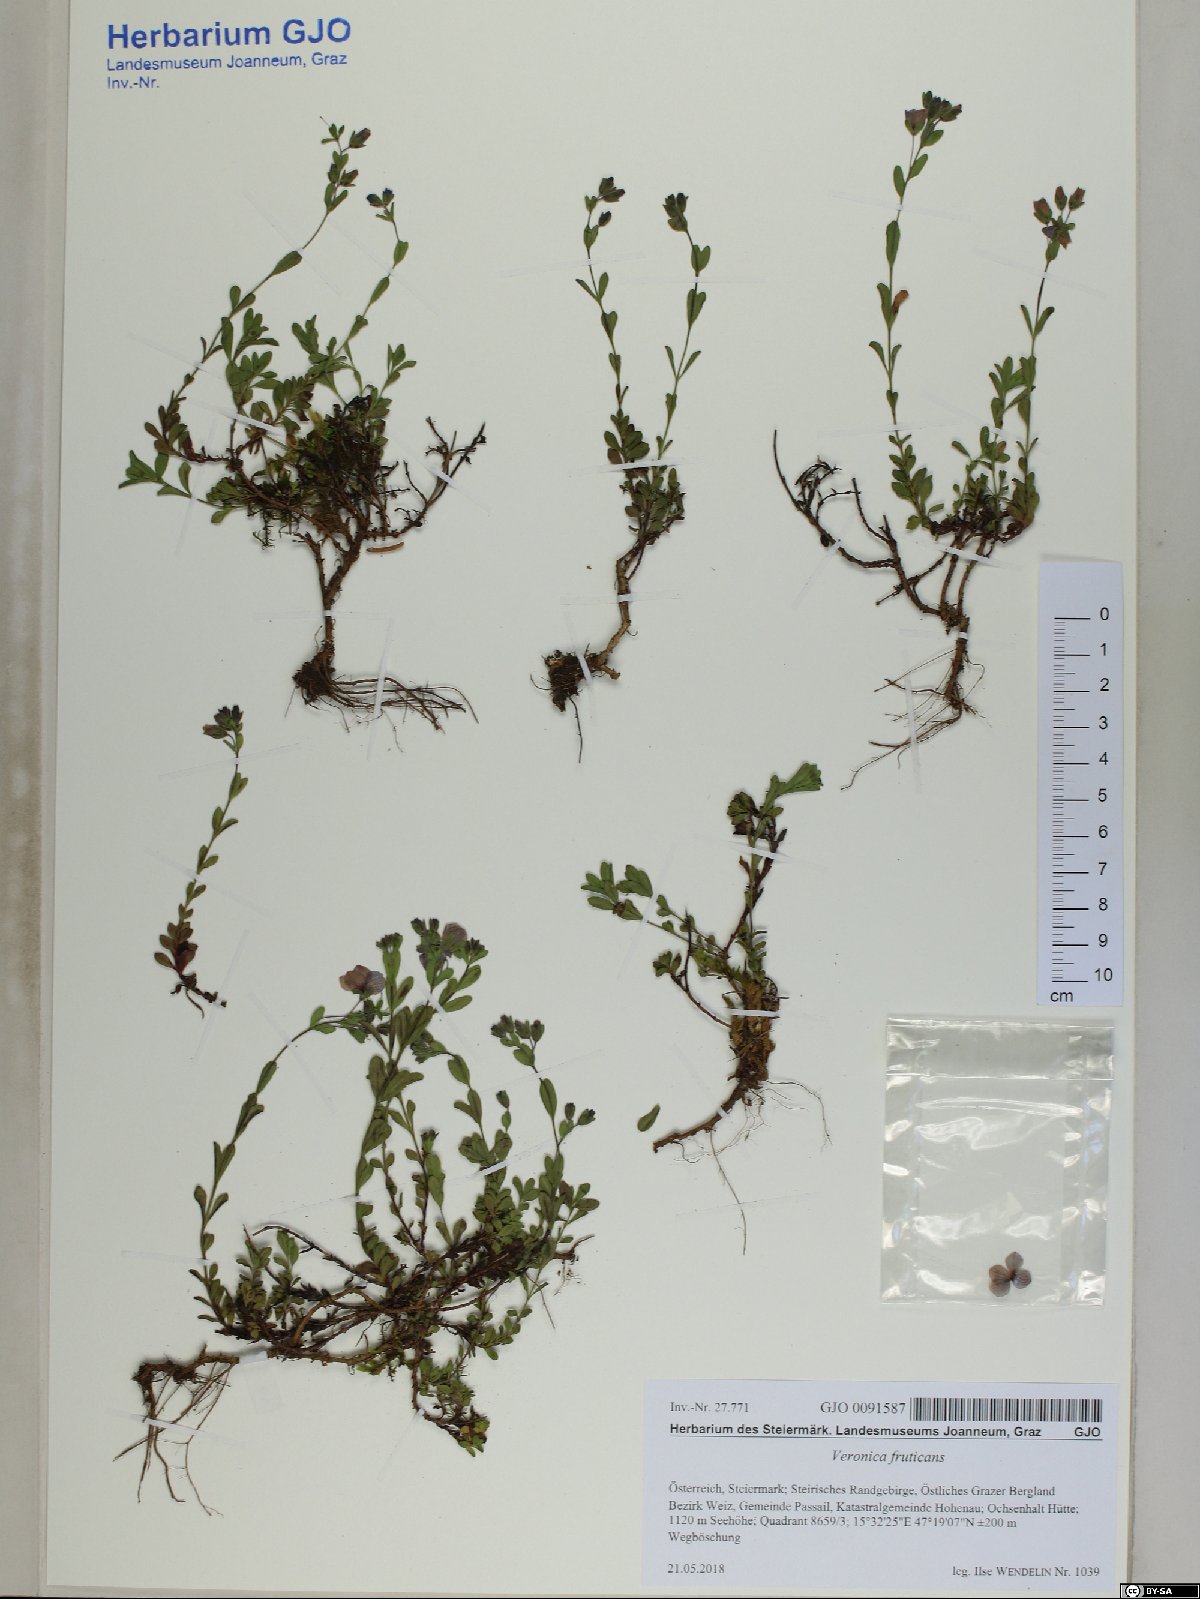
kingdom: Plantae
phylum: Tracheophyta
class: Magnoliopsida
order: Lamiales
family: Plantaginaceae
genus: Veronica
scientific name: Veronica fruticans
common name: Rock speedwell
